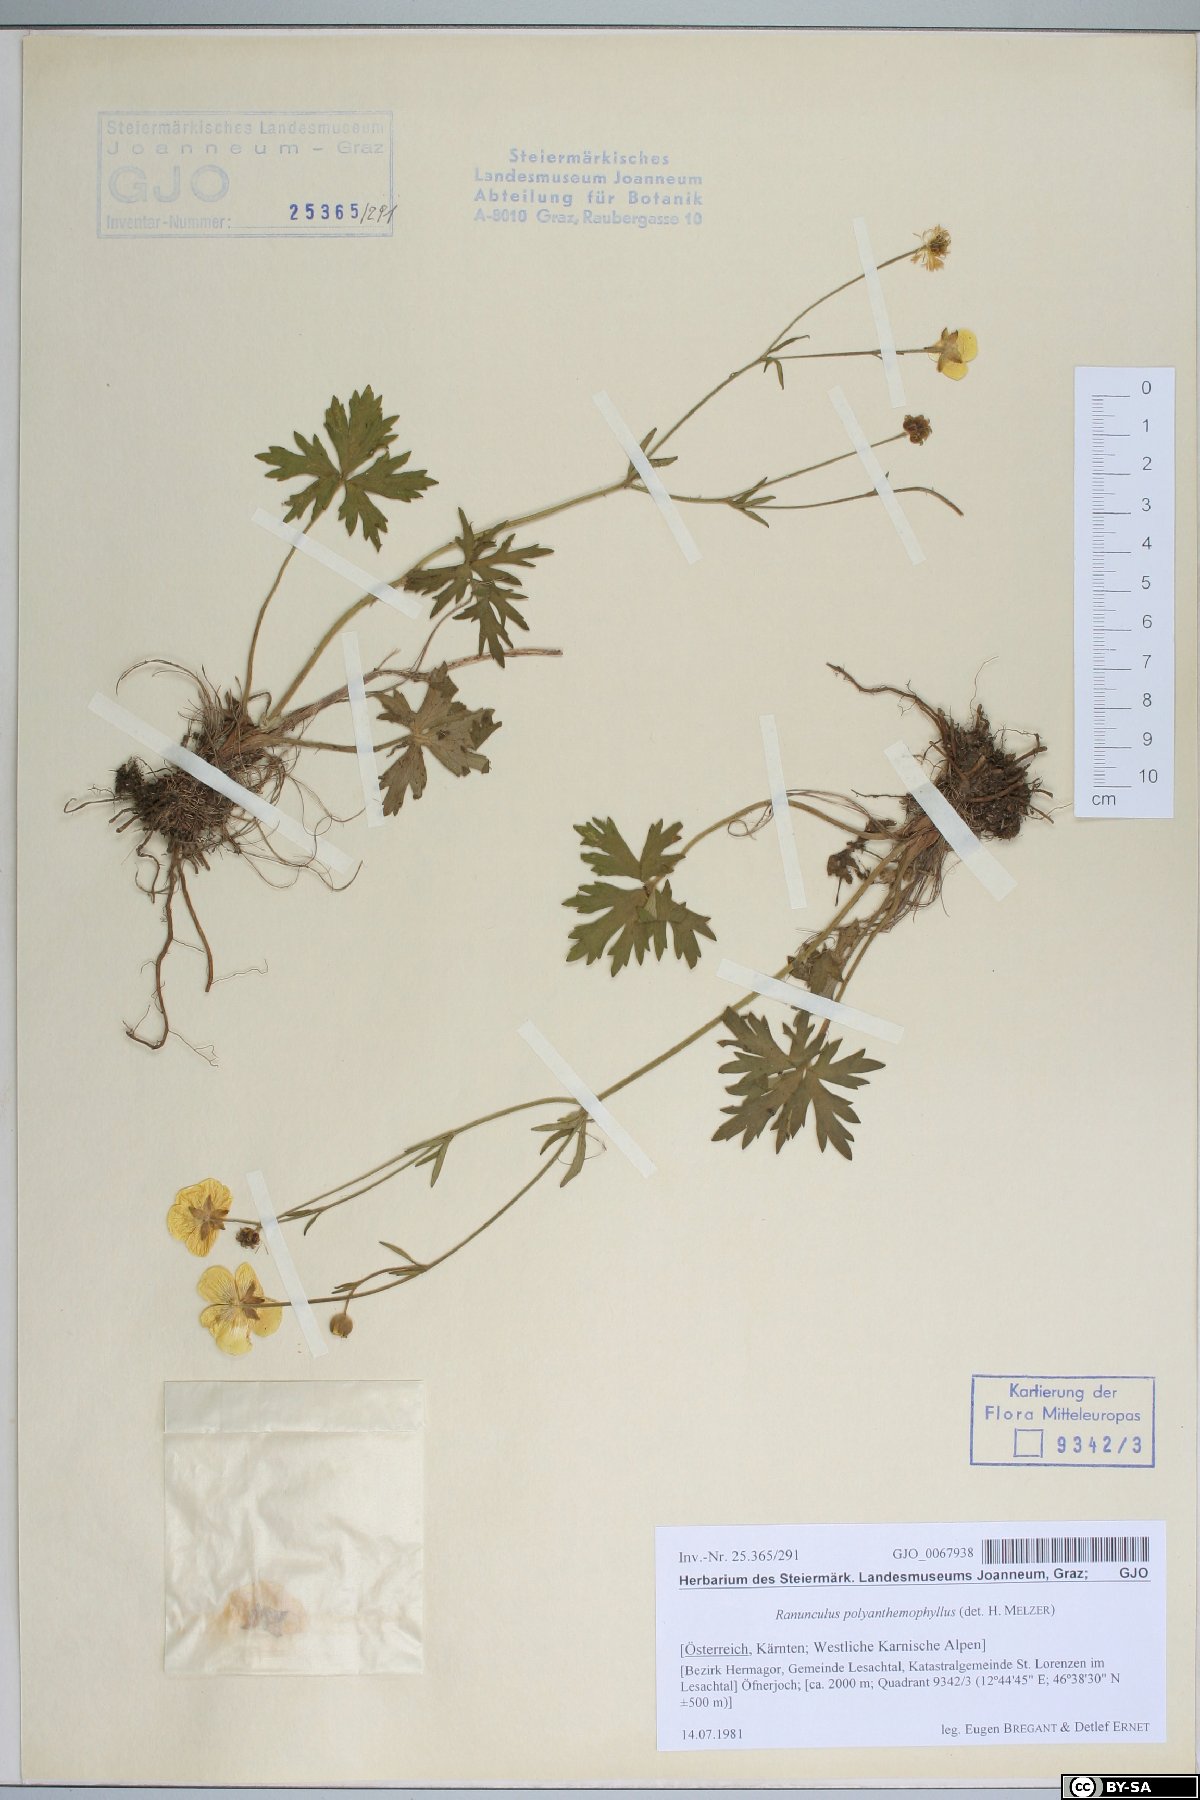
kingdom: Plantae
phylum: Tracheophyta
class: Magnoliopsida
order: Ranunculales
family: Ranunculaceae
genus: Ranunculus
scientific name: Ranunculus polyanthemos
